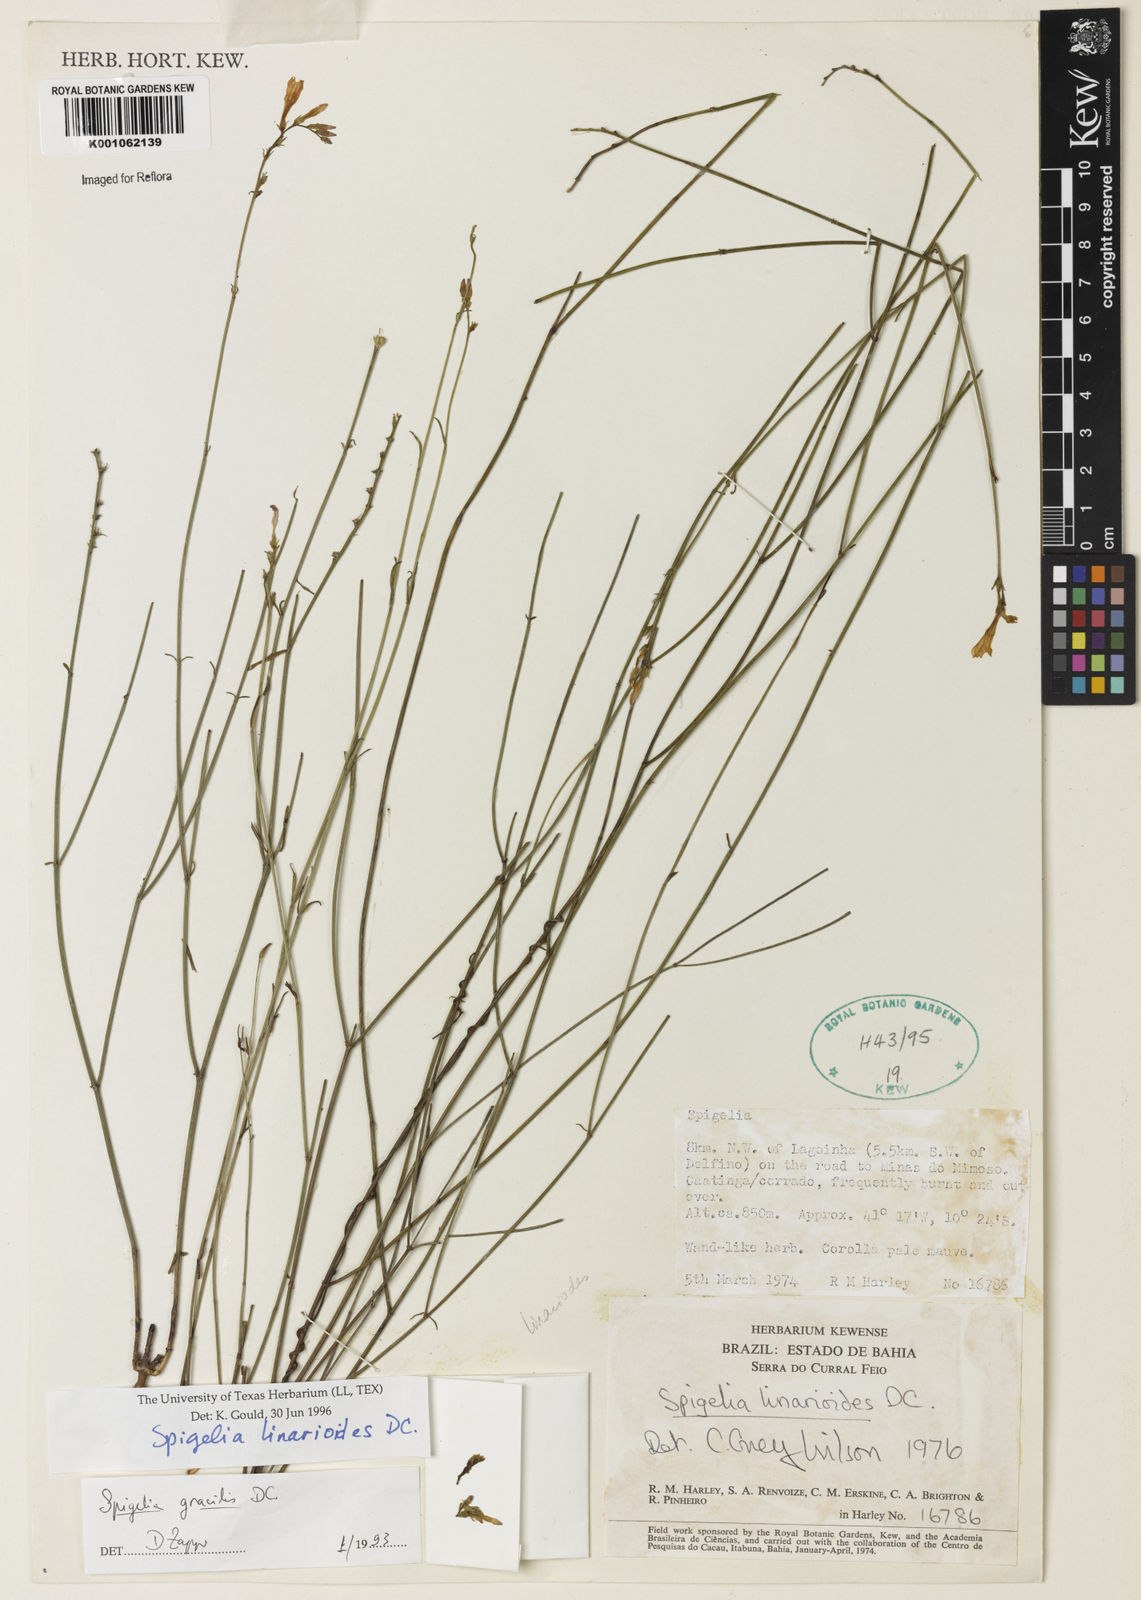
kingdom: Plantae
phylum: Tracheophyta
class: Magnoliopsida
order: Gentianales
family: Loganiaceae
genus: Spigelia
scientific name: Spigelia linarioides
